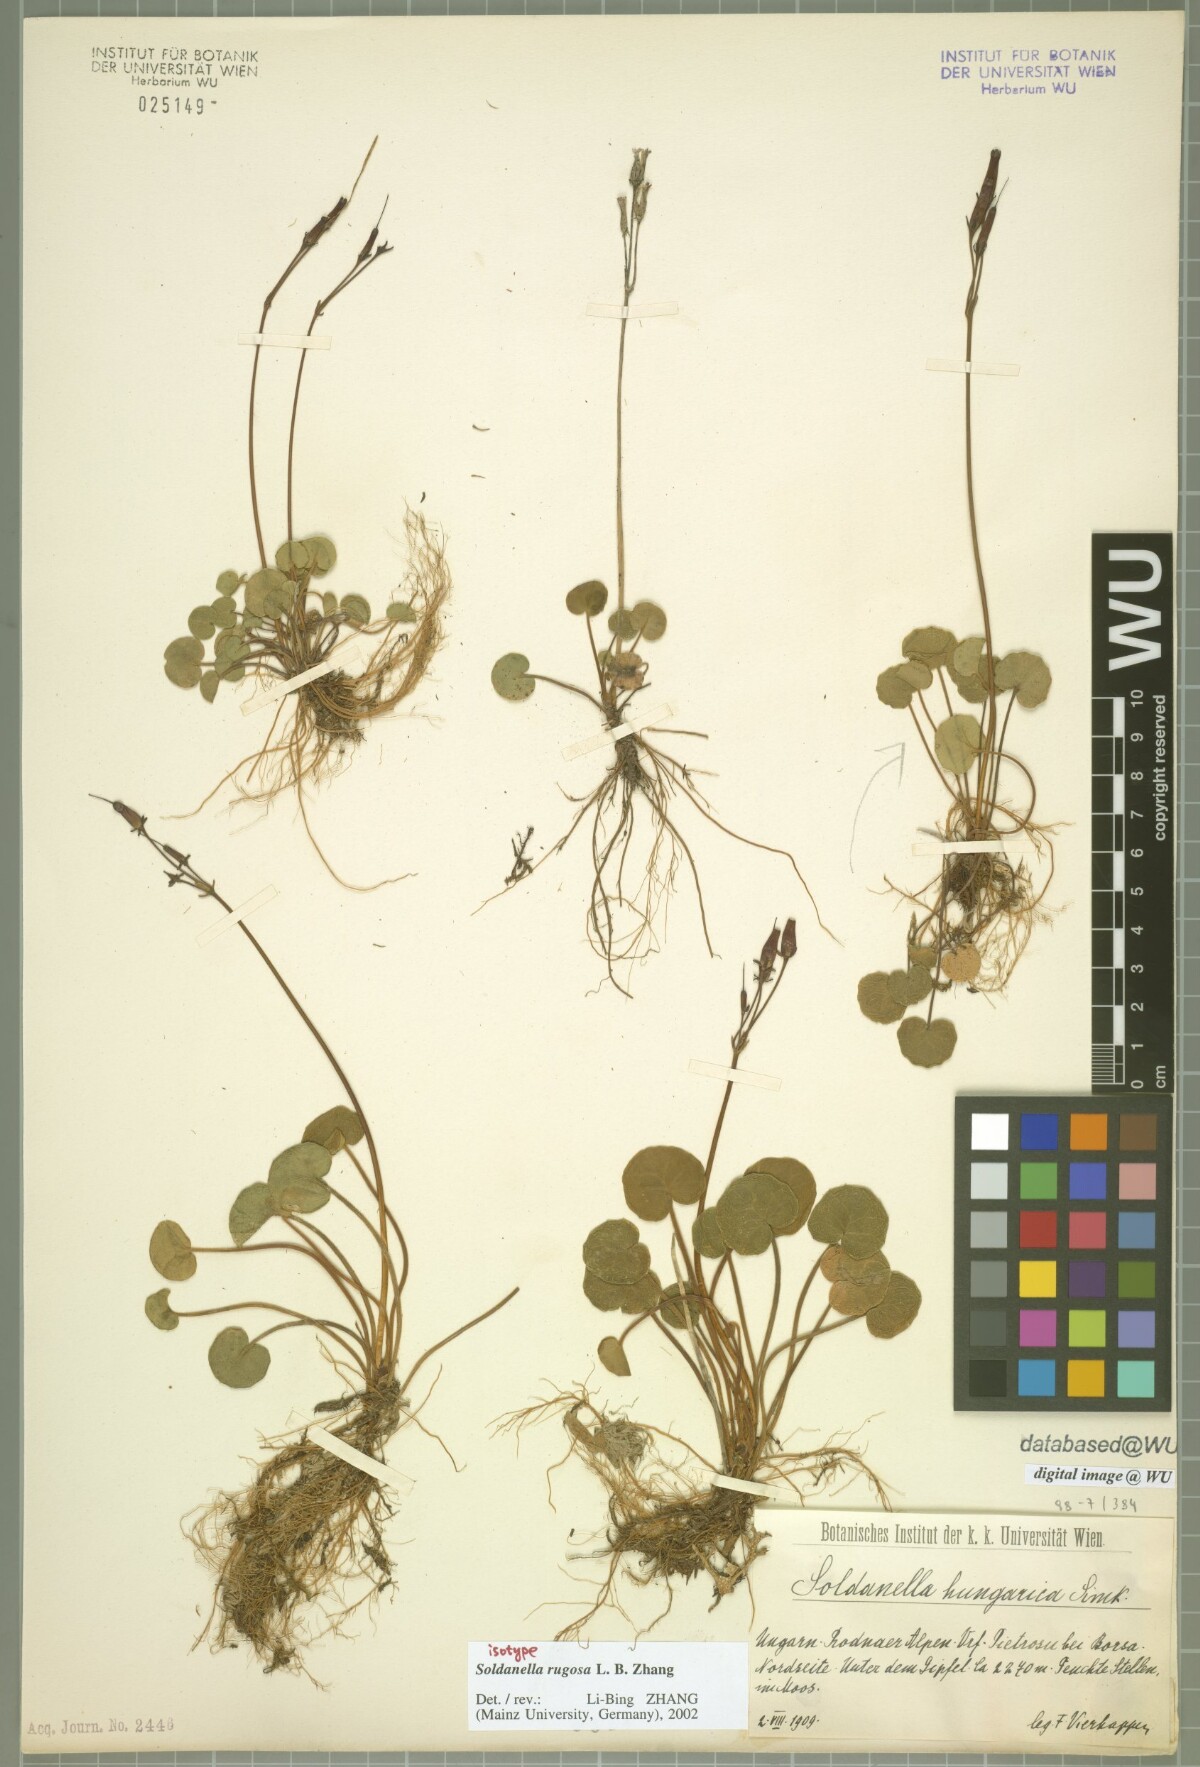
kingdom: Plantae
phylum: Tracheophyta
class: Magnoliopsida
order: Ericales
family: Primulaceae
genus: Soldanella
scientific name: Soldanella rugosa
